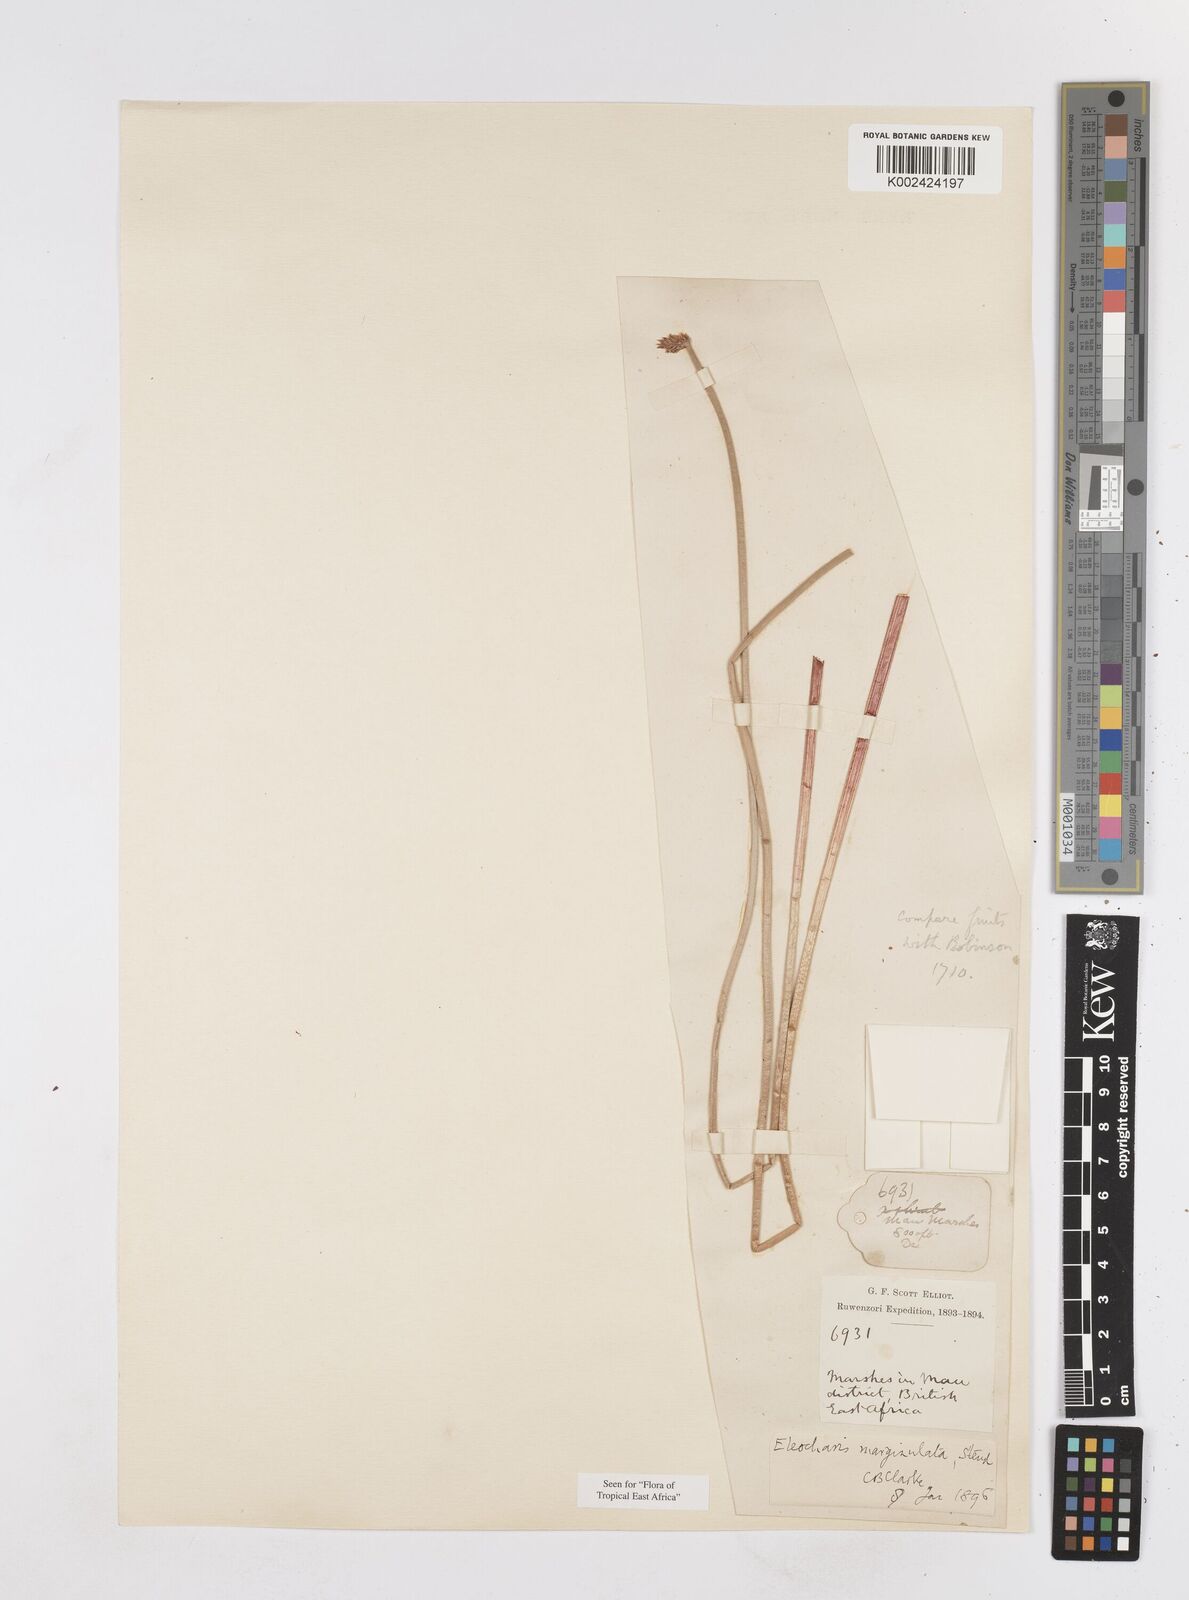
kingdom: Plantae
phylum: Tracheophyta
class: Liliopsida
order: Poales
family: Cyperaceae
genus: Eleocharis
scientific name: Eleocharis marginulata
